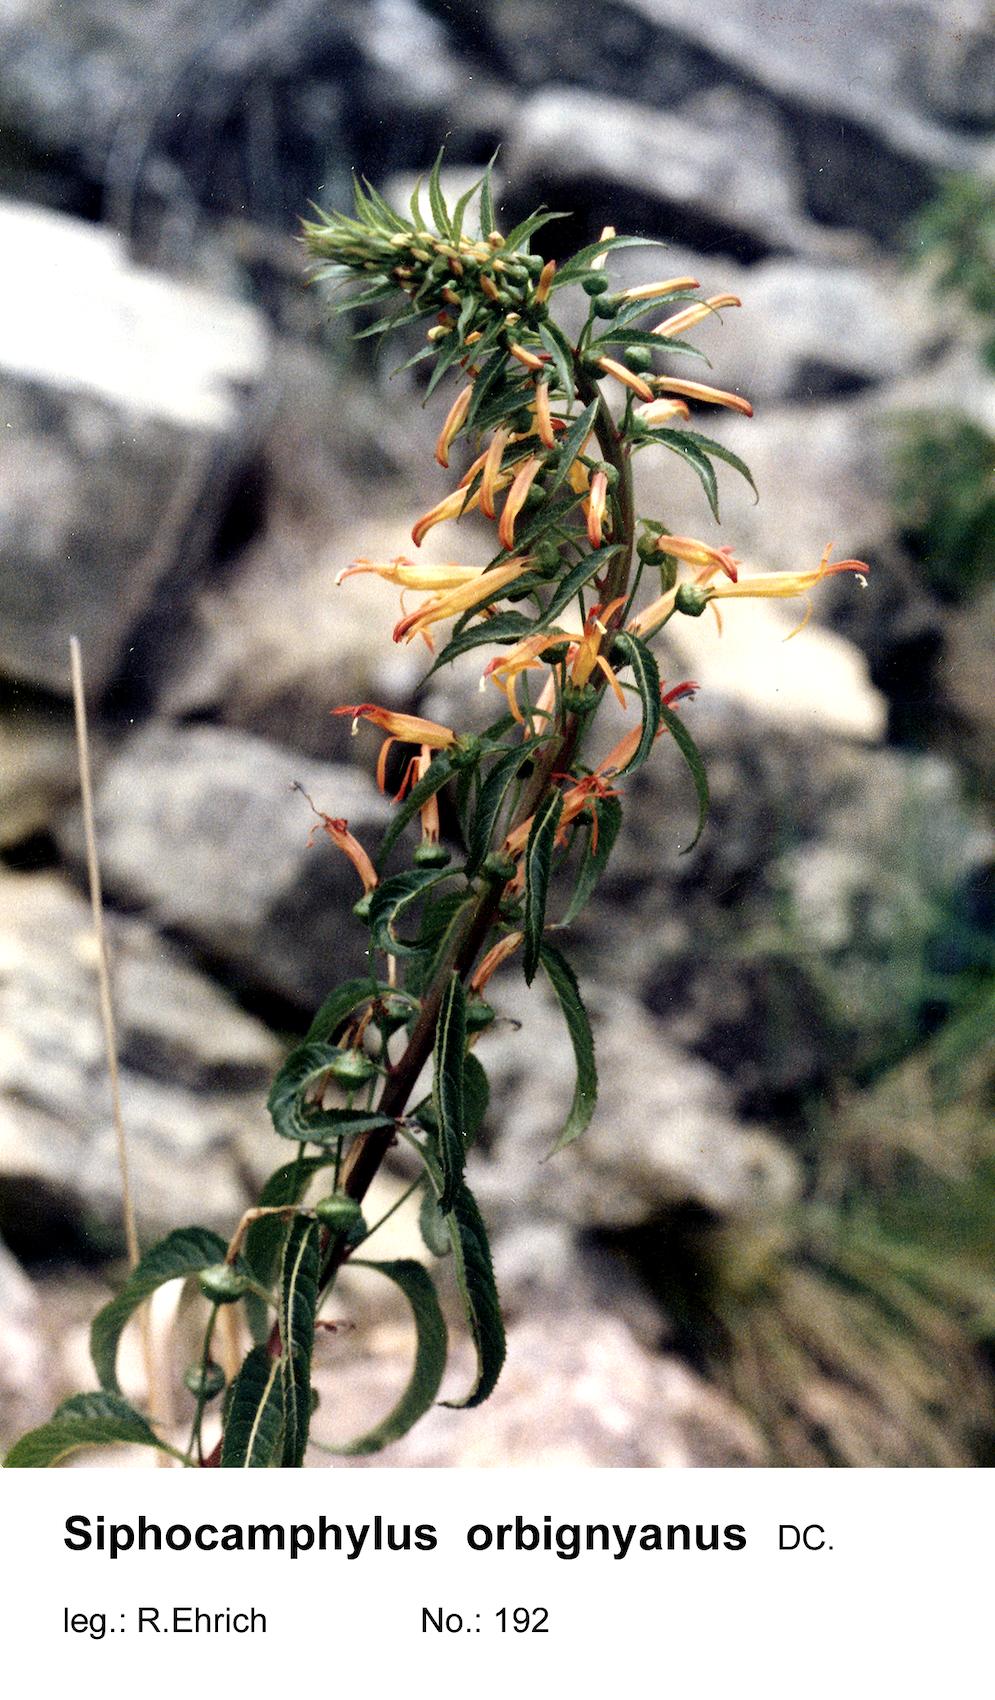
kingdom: Plantae
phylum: Tracheophyta
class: Magnoliopsida
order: Asterales
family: Campanulaceae
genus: Siphocampylus
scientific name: Siphocampylus
